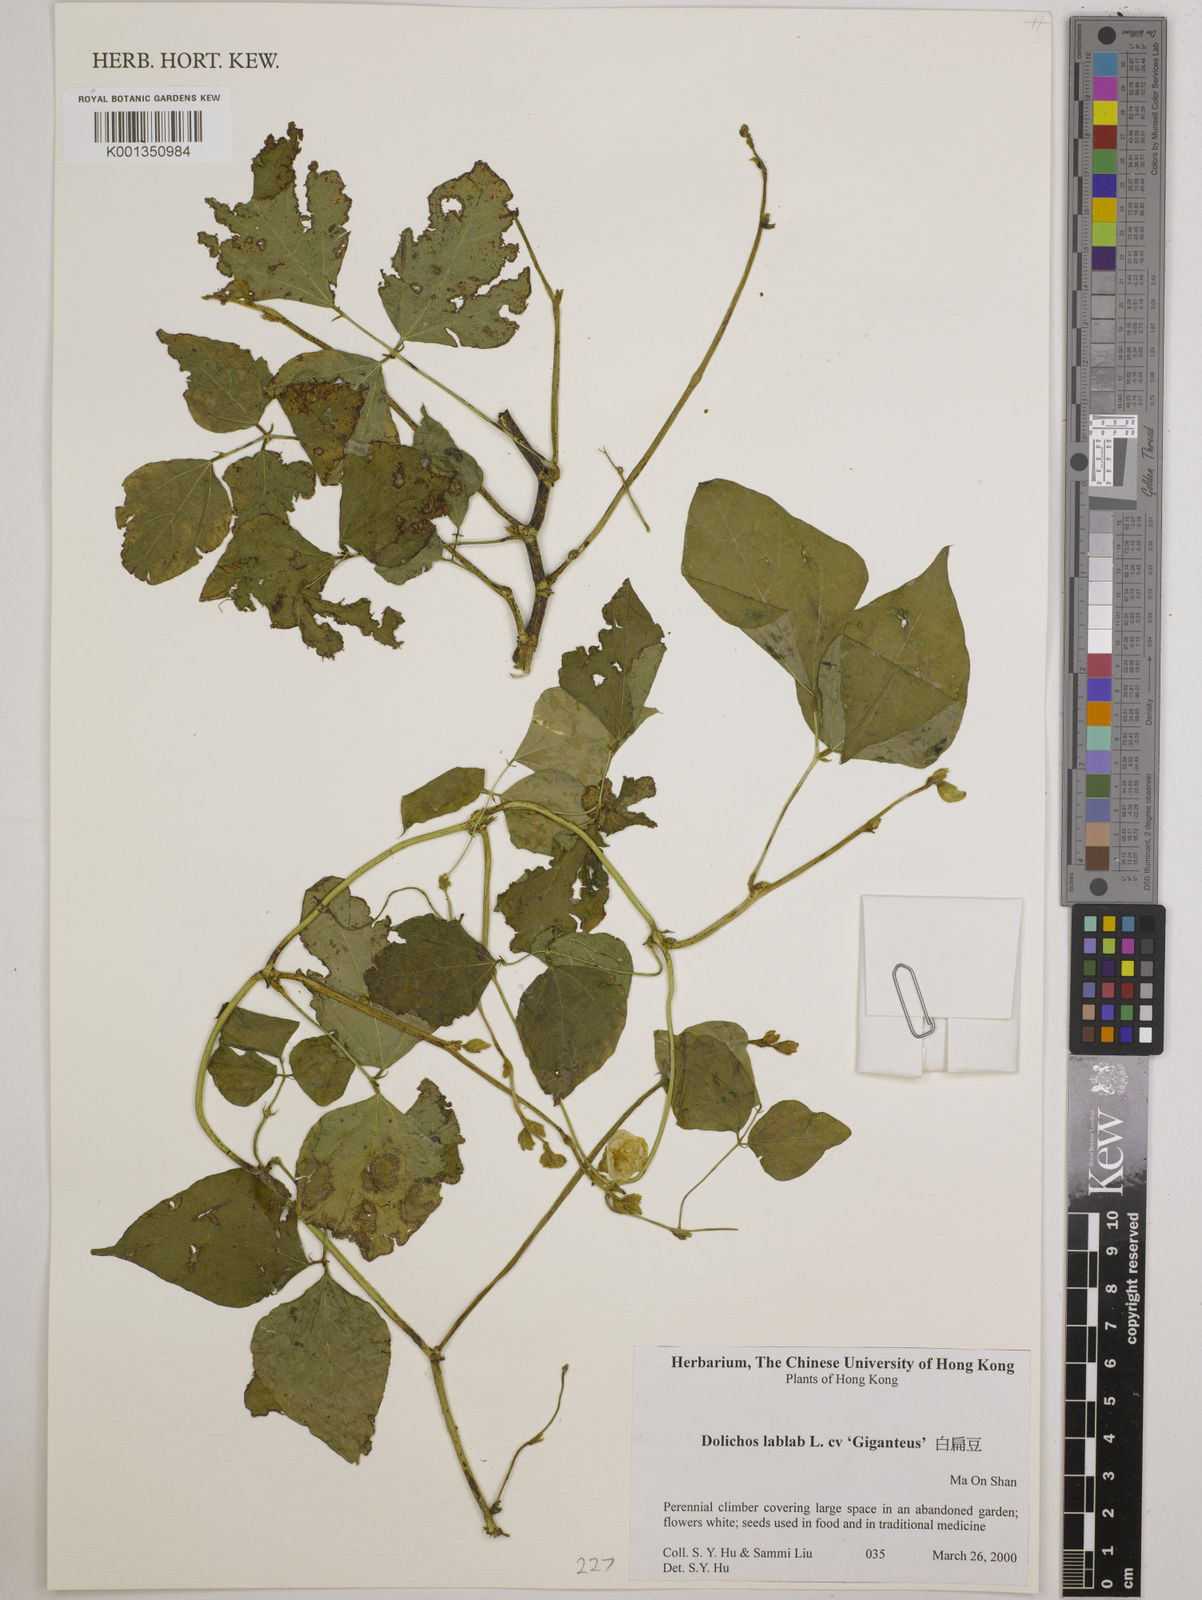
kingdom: Plantae
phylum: Tracheophyta
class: Magnoliopsida
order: Fabales
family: Fabaceae
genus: Lablab
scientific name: Lablab purpureus
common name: Lablab-bean
